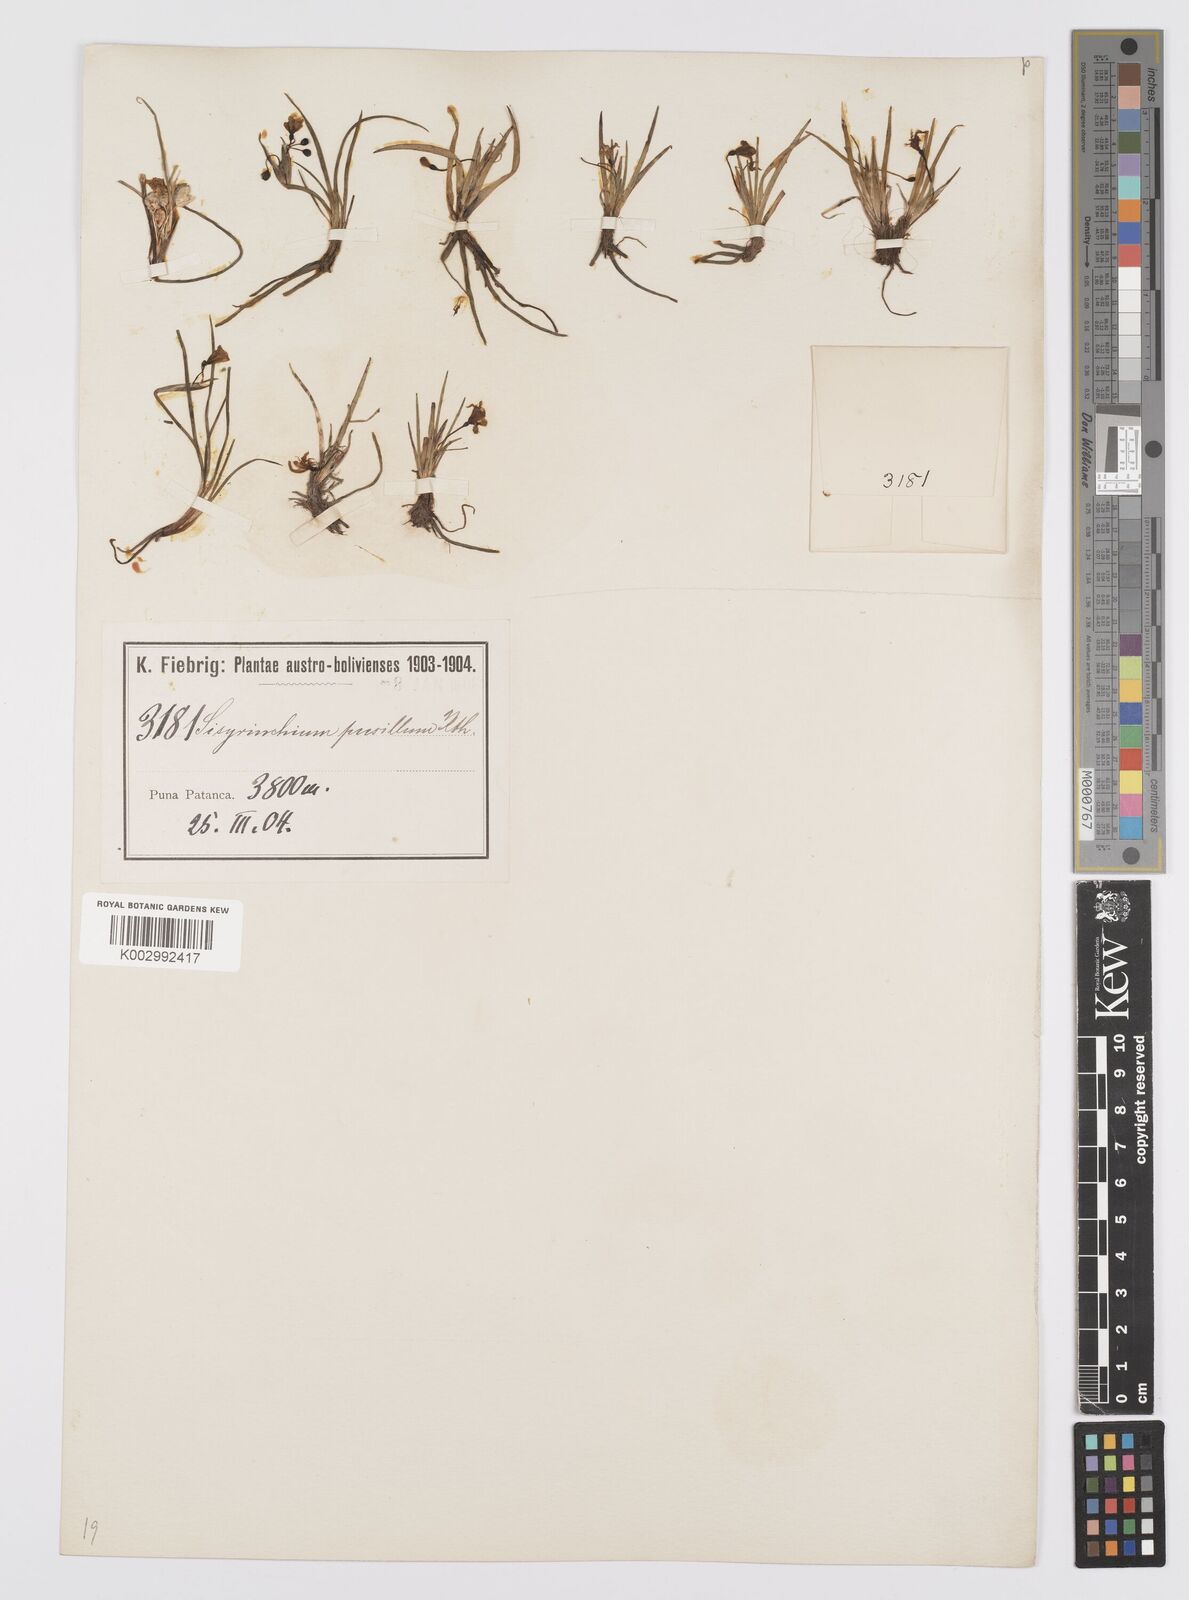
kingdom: Plantae
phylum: Tracheophyta
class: Liliopsida
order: Asparagales
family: Iridaceae
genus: Sisyrinchium
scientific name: Sisyrinchium pusillum
